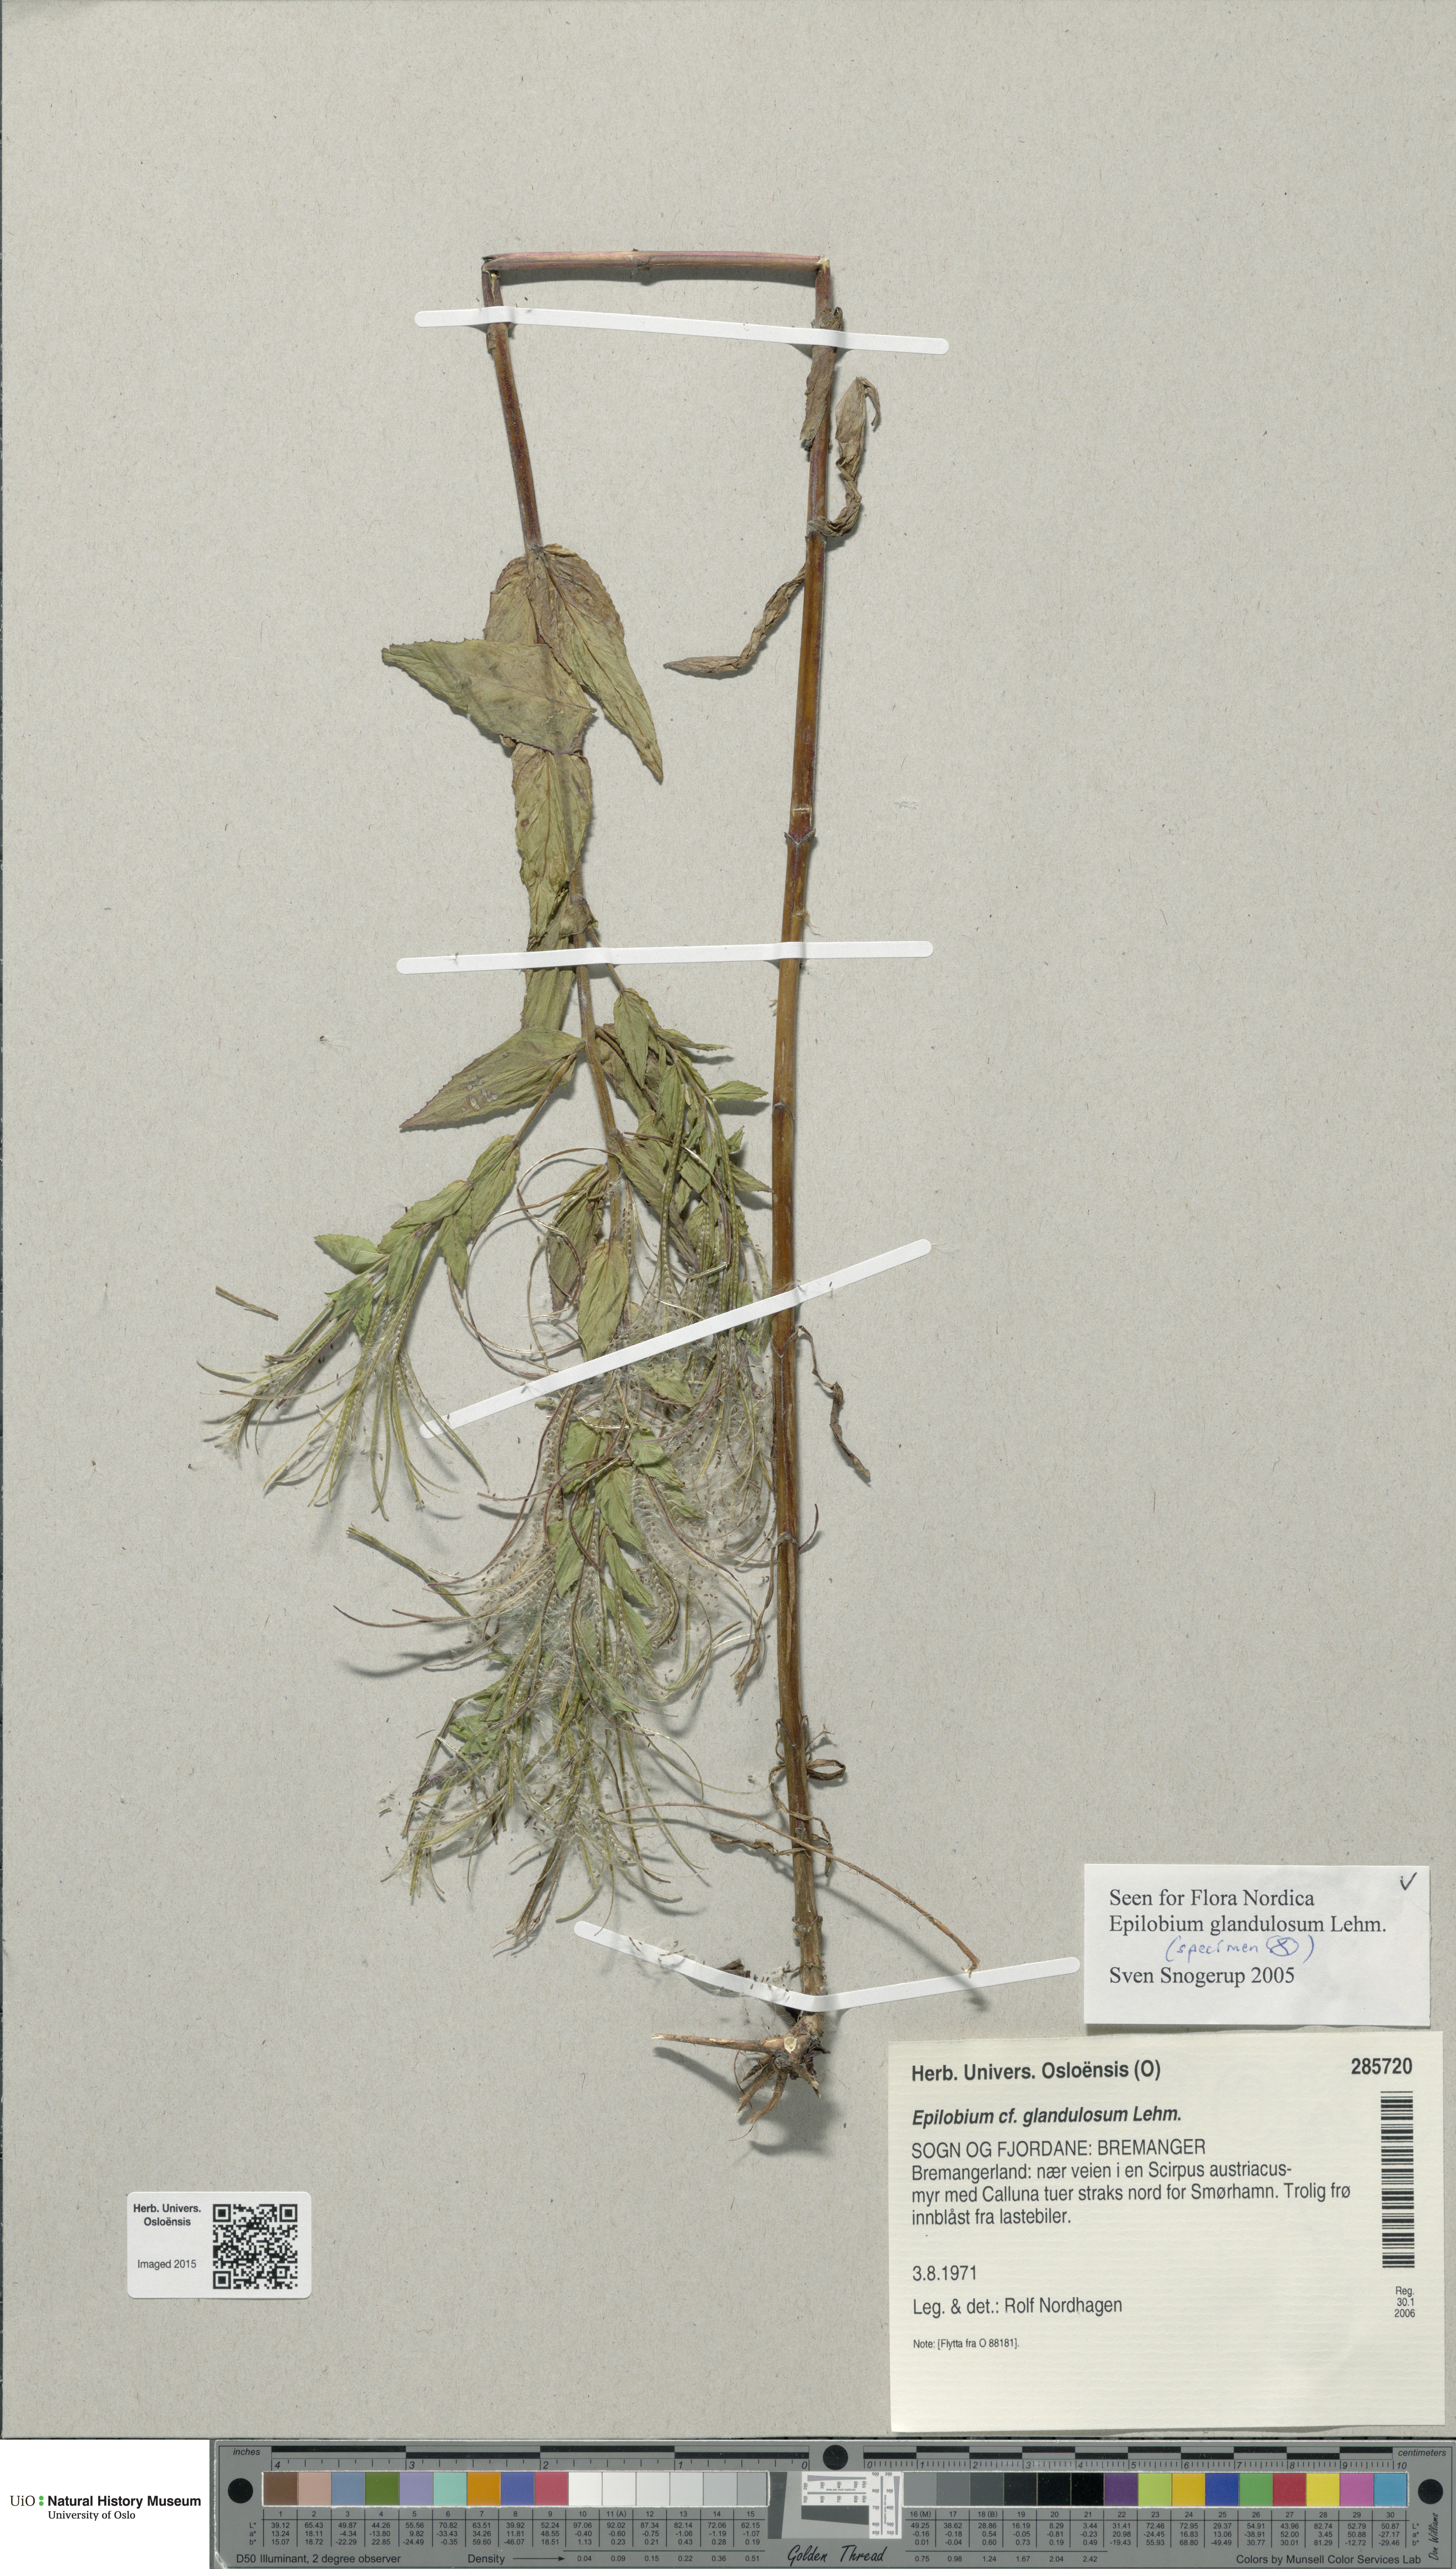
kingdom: Plantae
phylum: Tracheophyta
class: Magnoliopsida
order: Myrtales
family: Onagraceae
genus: Epilobium
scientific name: Epilobium ciliatum
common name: American willowherb
